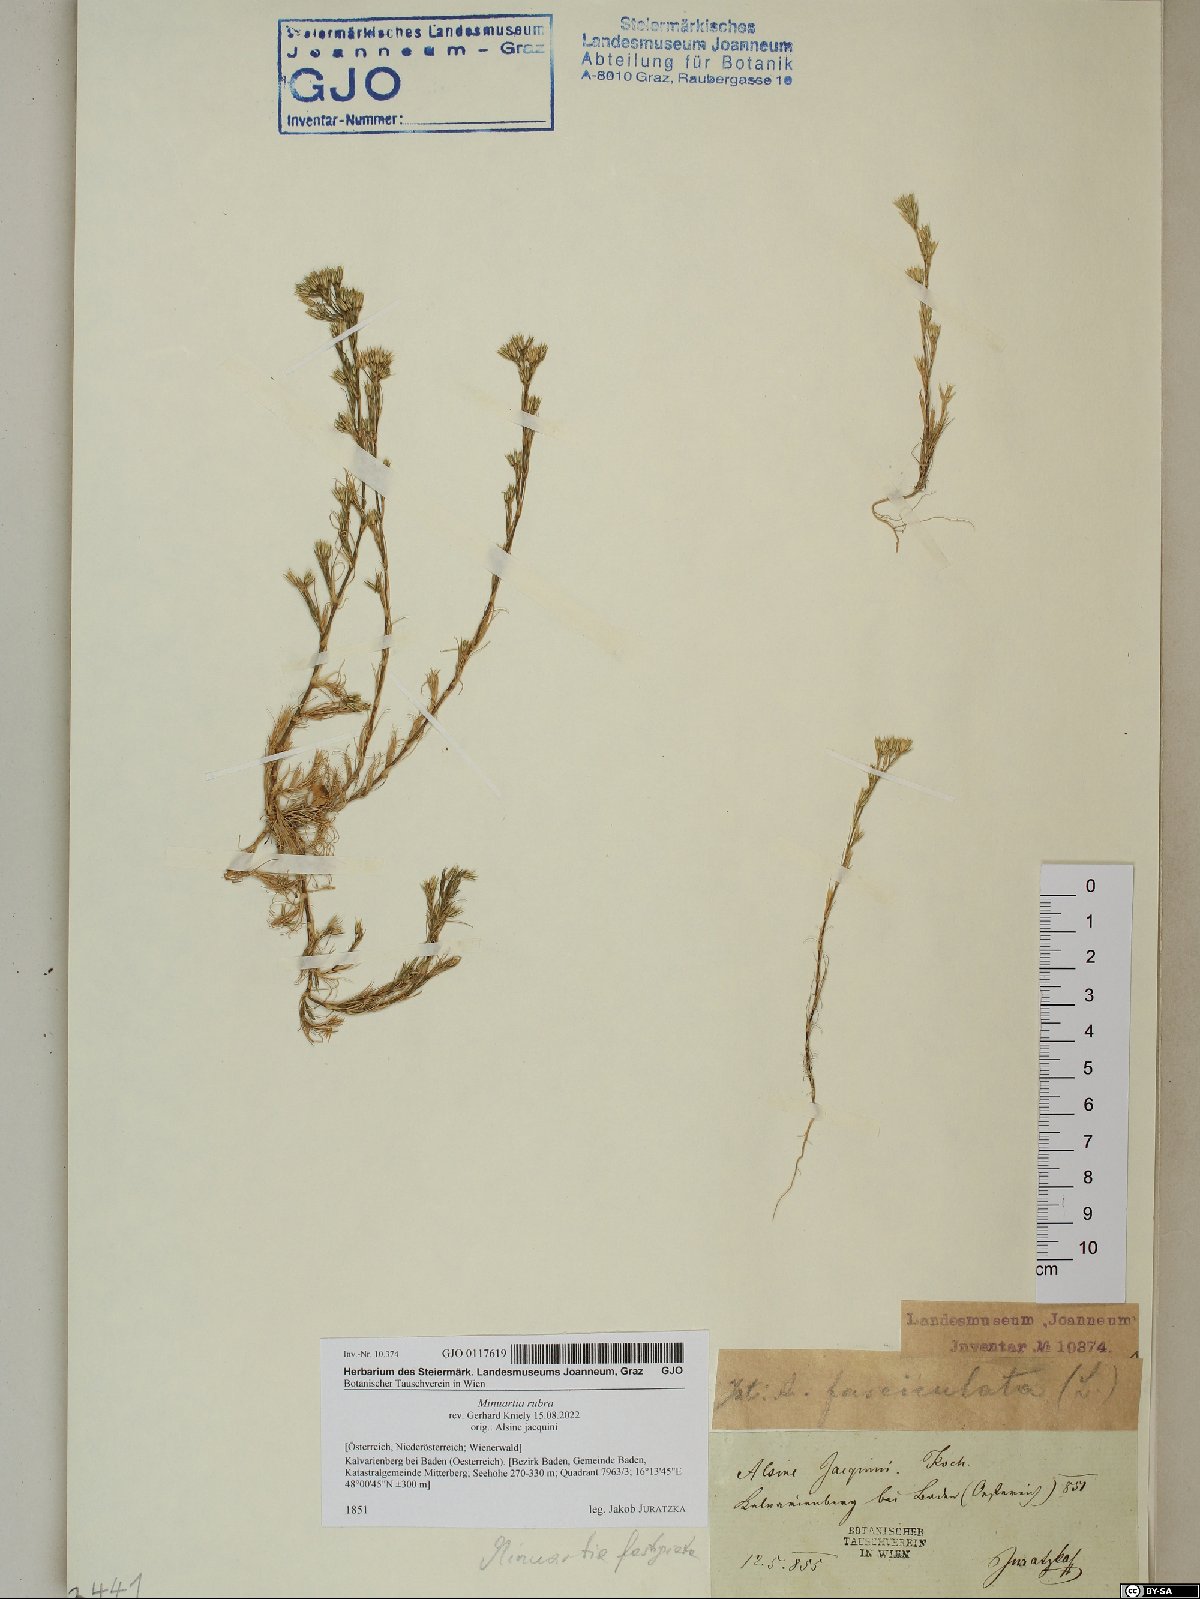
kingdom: Plantae
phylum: Tracheophyta
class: Magnoliopsida
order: Caryophyllales
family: Caryophyllaceae
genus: Minuartia
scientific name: Minuartia mucronata
